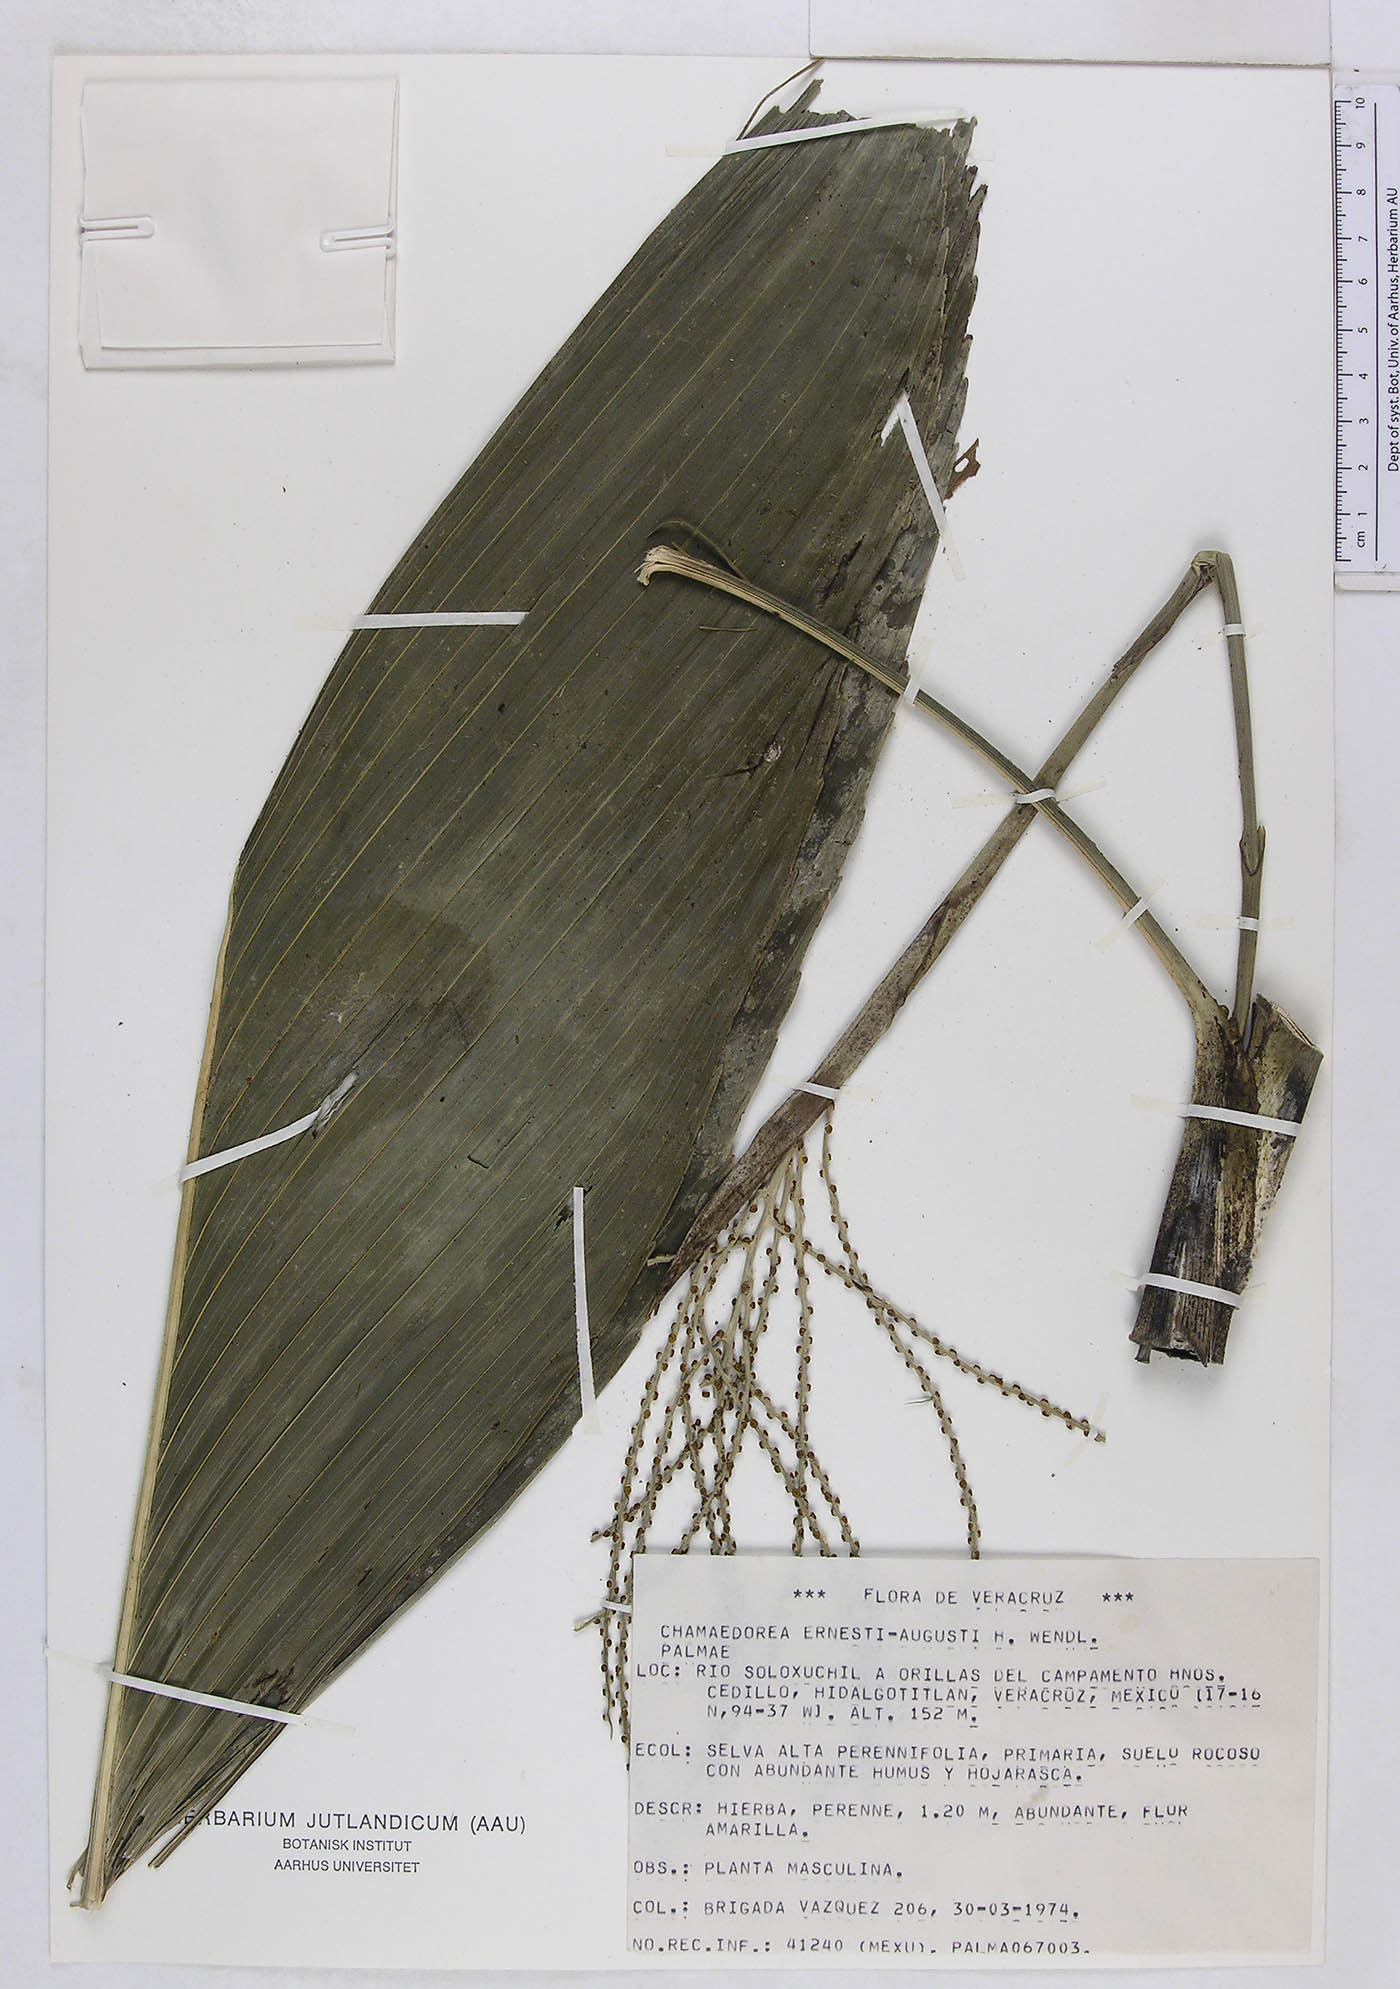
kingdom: Plantae
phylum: Tracheophyta
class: Liliopsida
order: Arecales
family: Arecaceae
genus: Chamaedorea
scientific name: Chamaedorea ernesti-augusti
